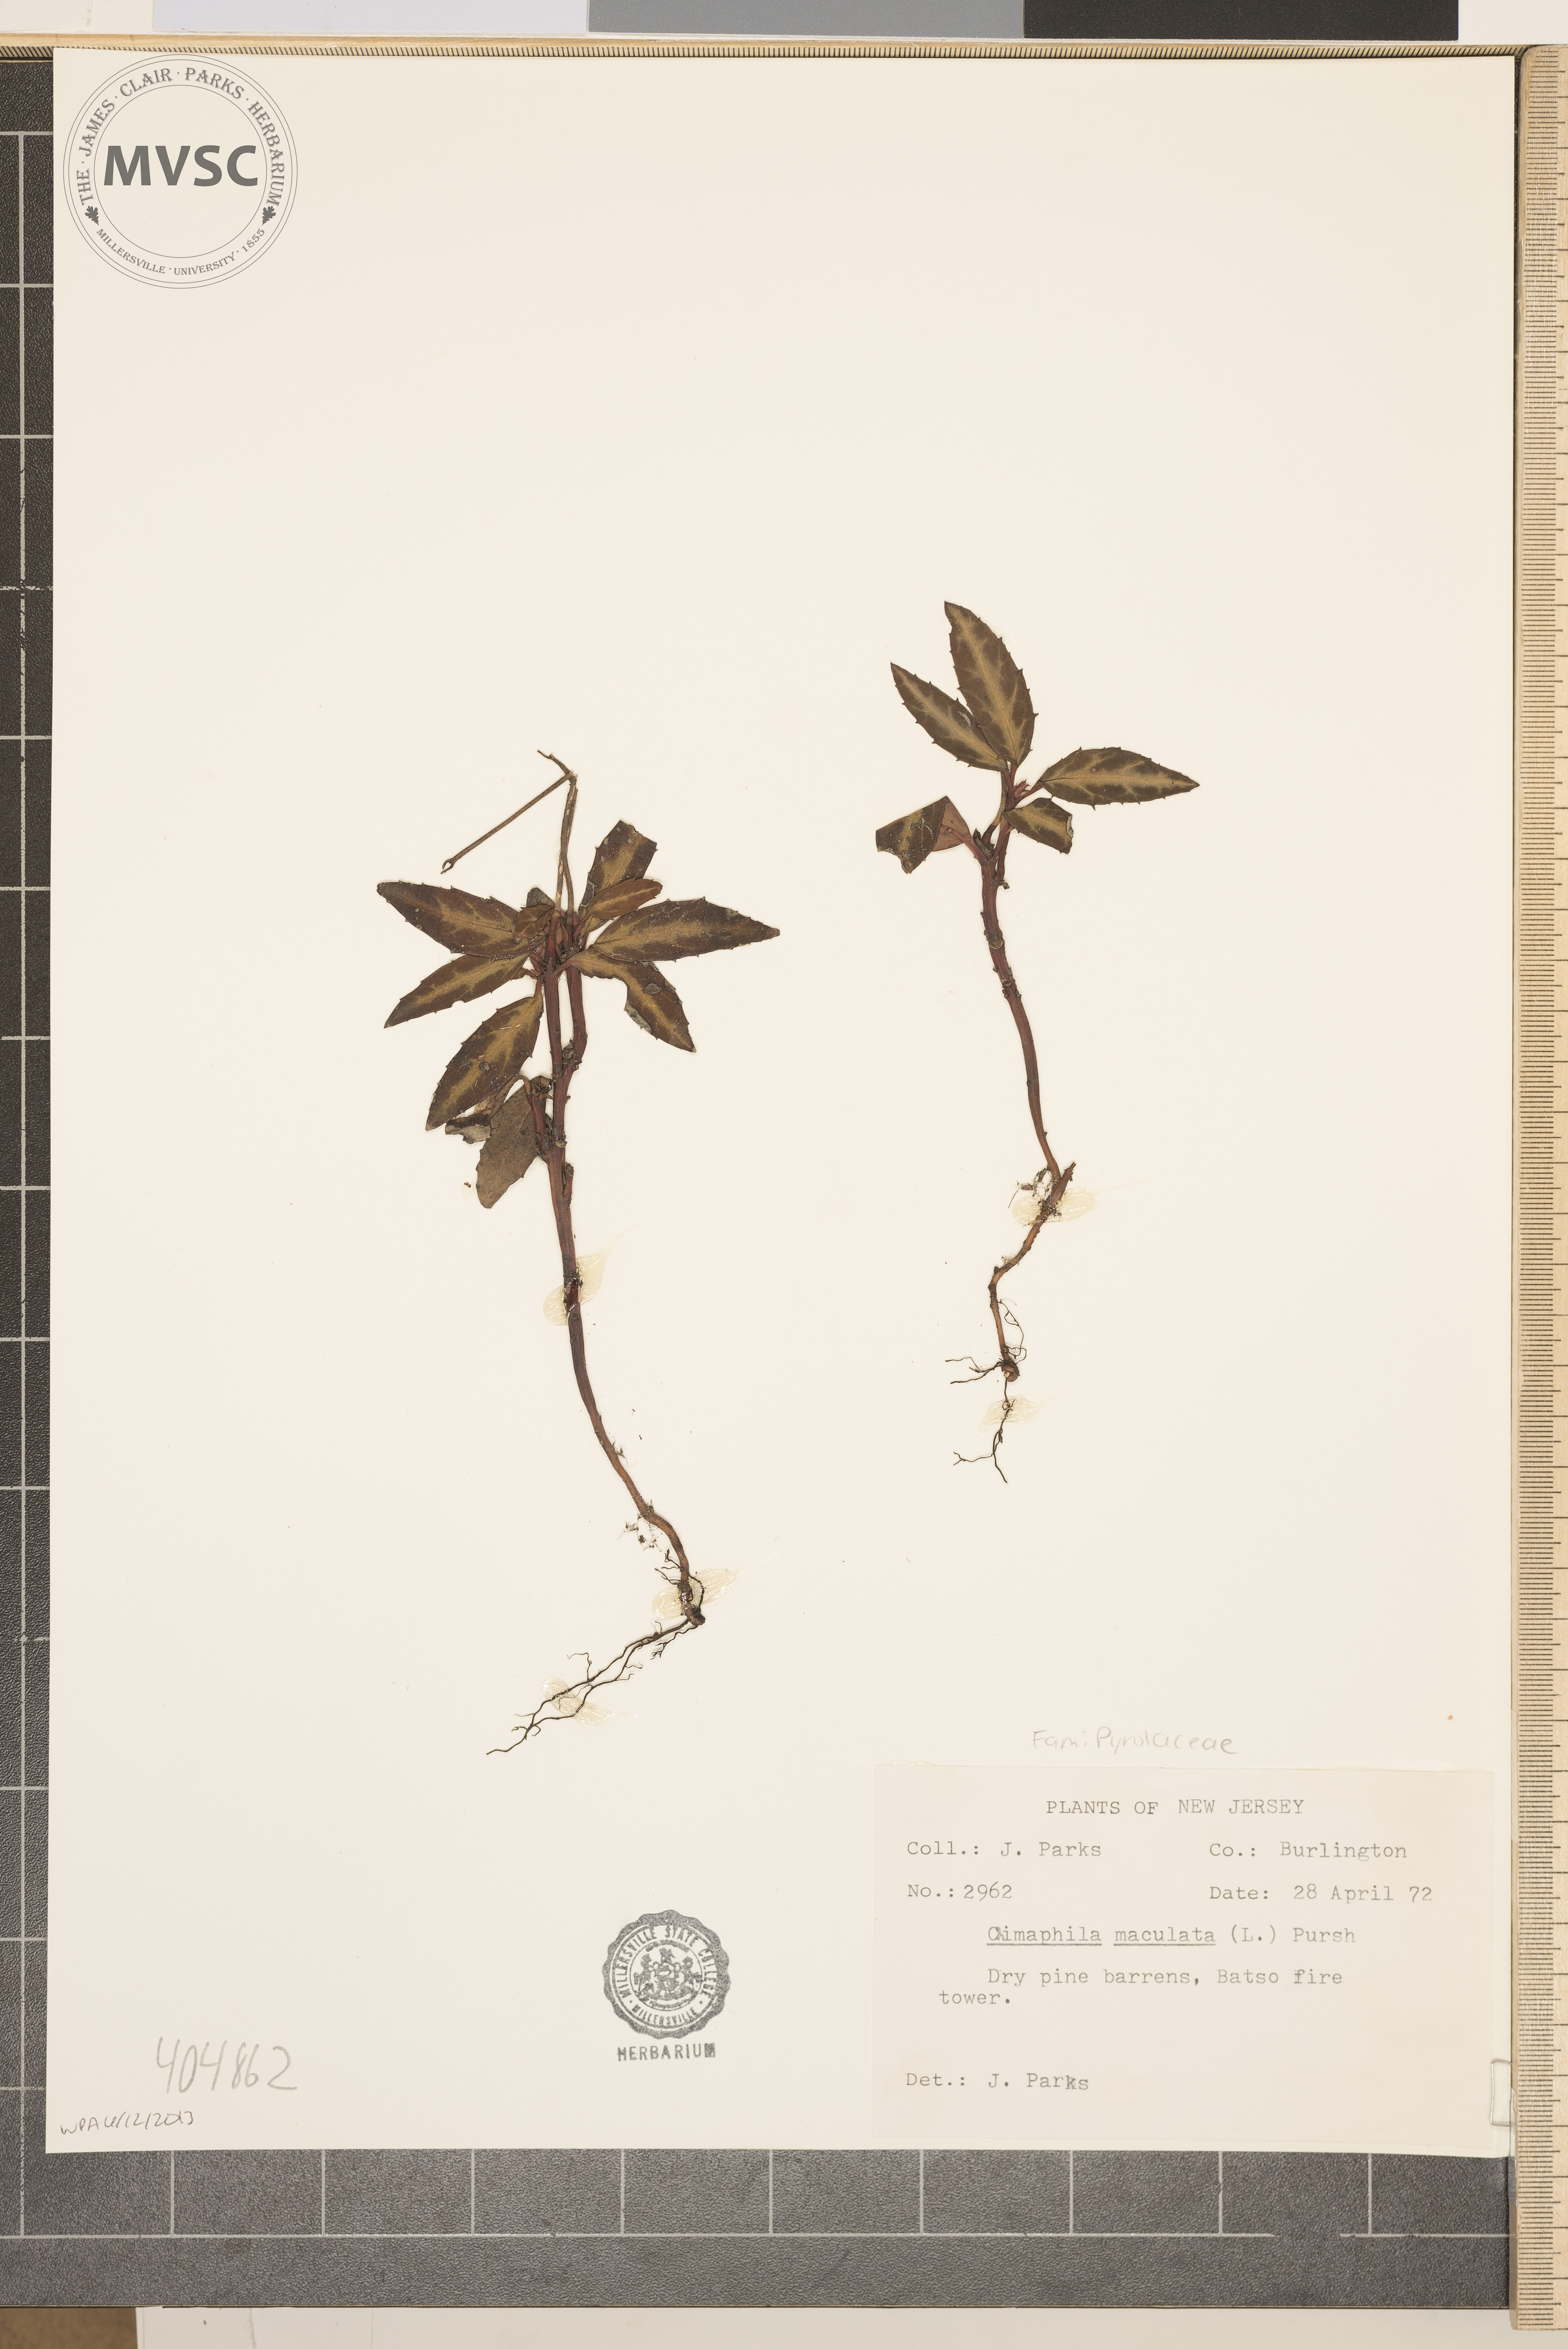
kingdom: Plantae
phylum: Tracheophyta
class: Magnoliopsida
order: Ericales
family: Ericaceae
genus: Chimaphila
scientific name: Chimaphila maculata
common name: Spotted pipsissewa
